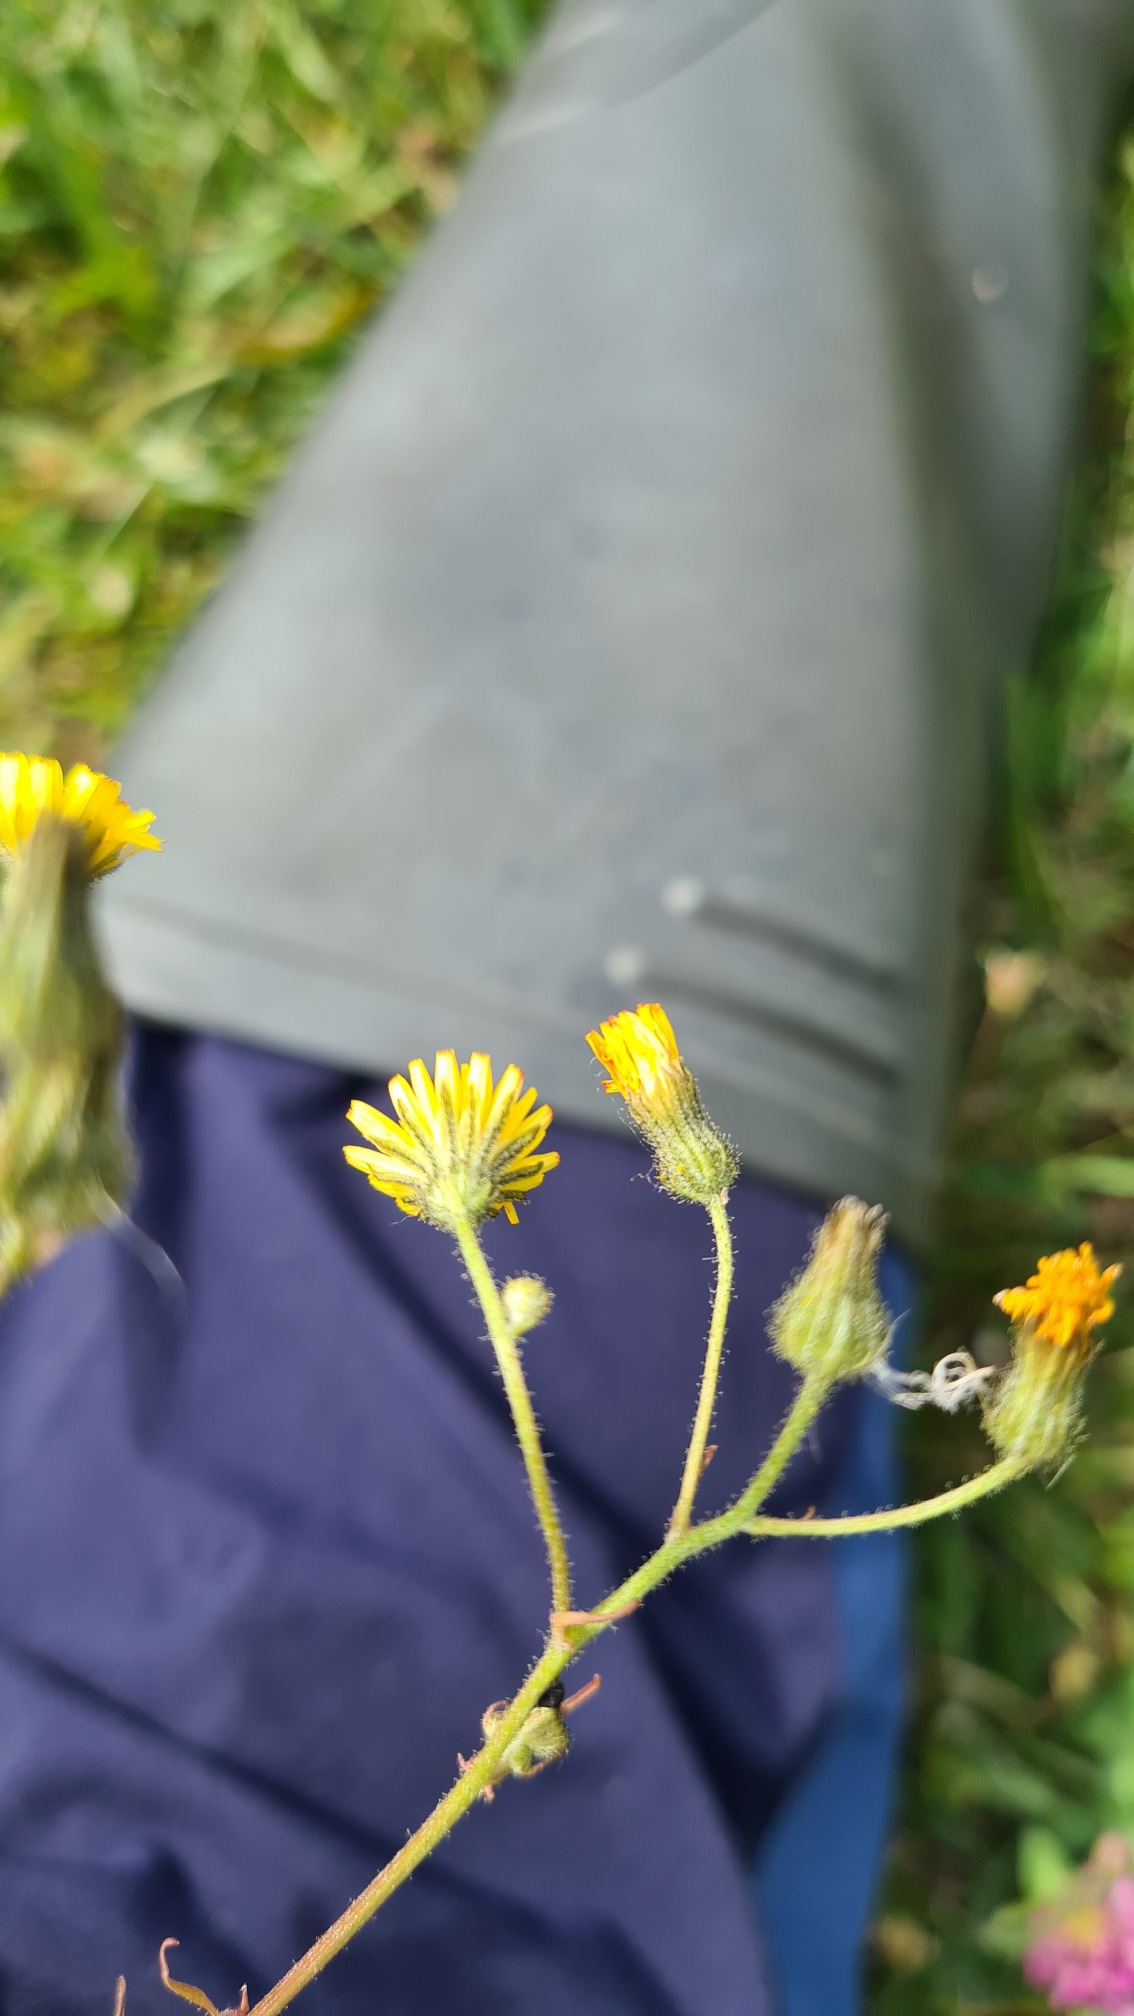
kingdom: Plantae
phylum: Tracheophyta
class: Magnoliopsida
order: Asterales
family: Asteraceae
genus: Crepis
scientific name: Crepis
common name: Høgeskægslægten
